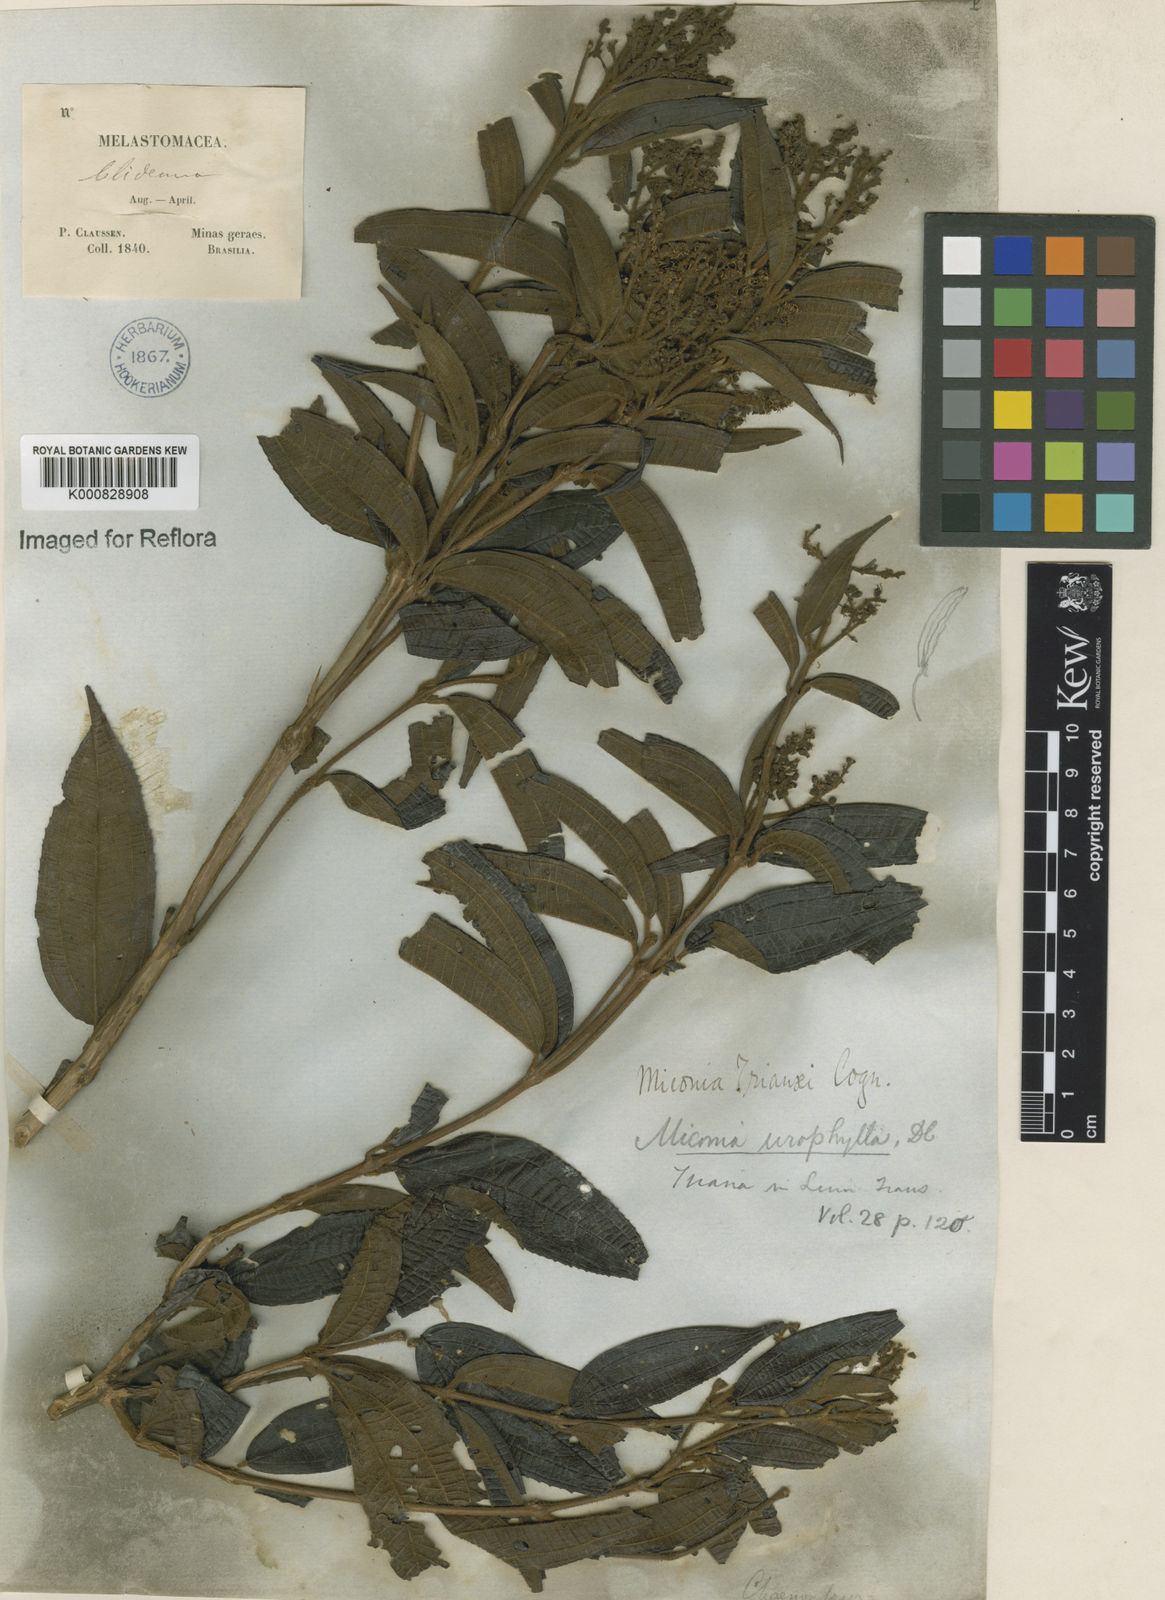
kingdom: Plantae
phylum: Tracheophyta
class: Magnoliopsida
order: Myrtales
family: Melastomataceae
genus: Miconia
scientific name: Miconia trianae
